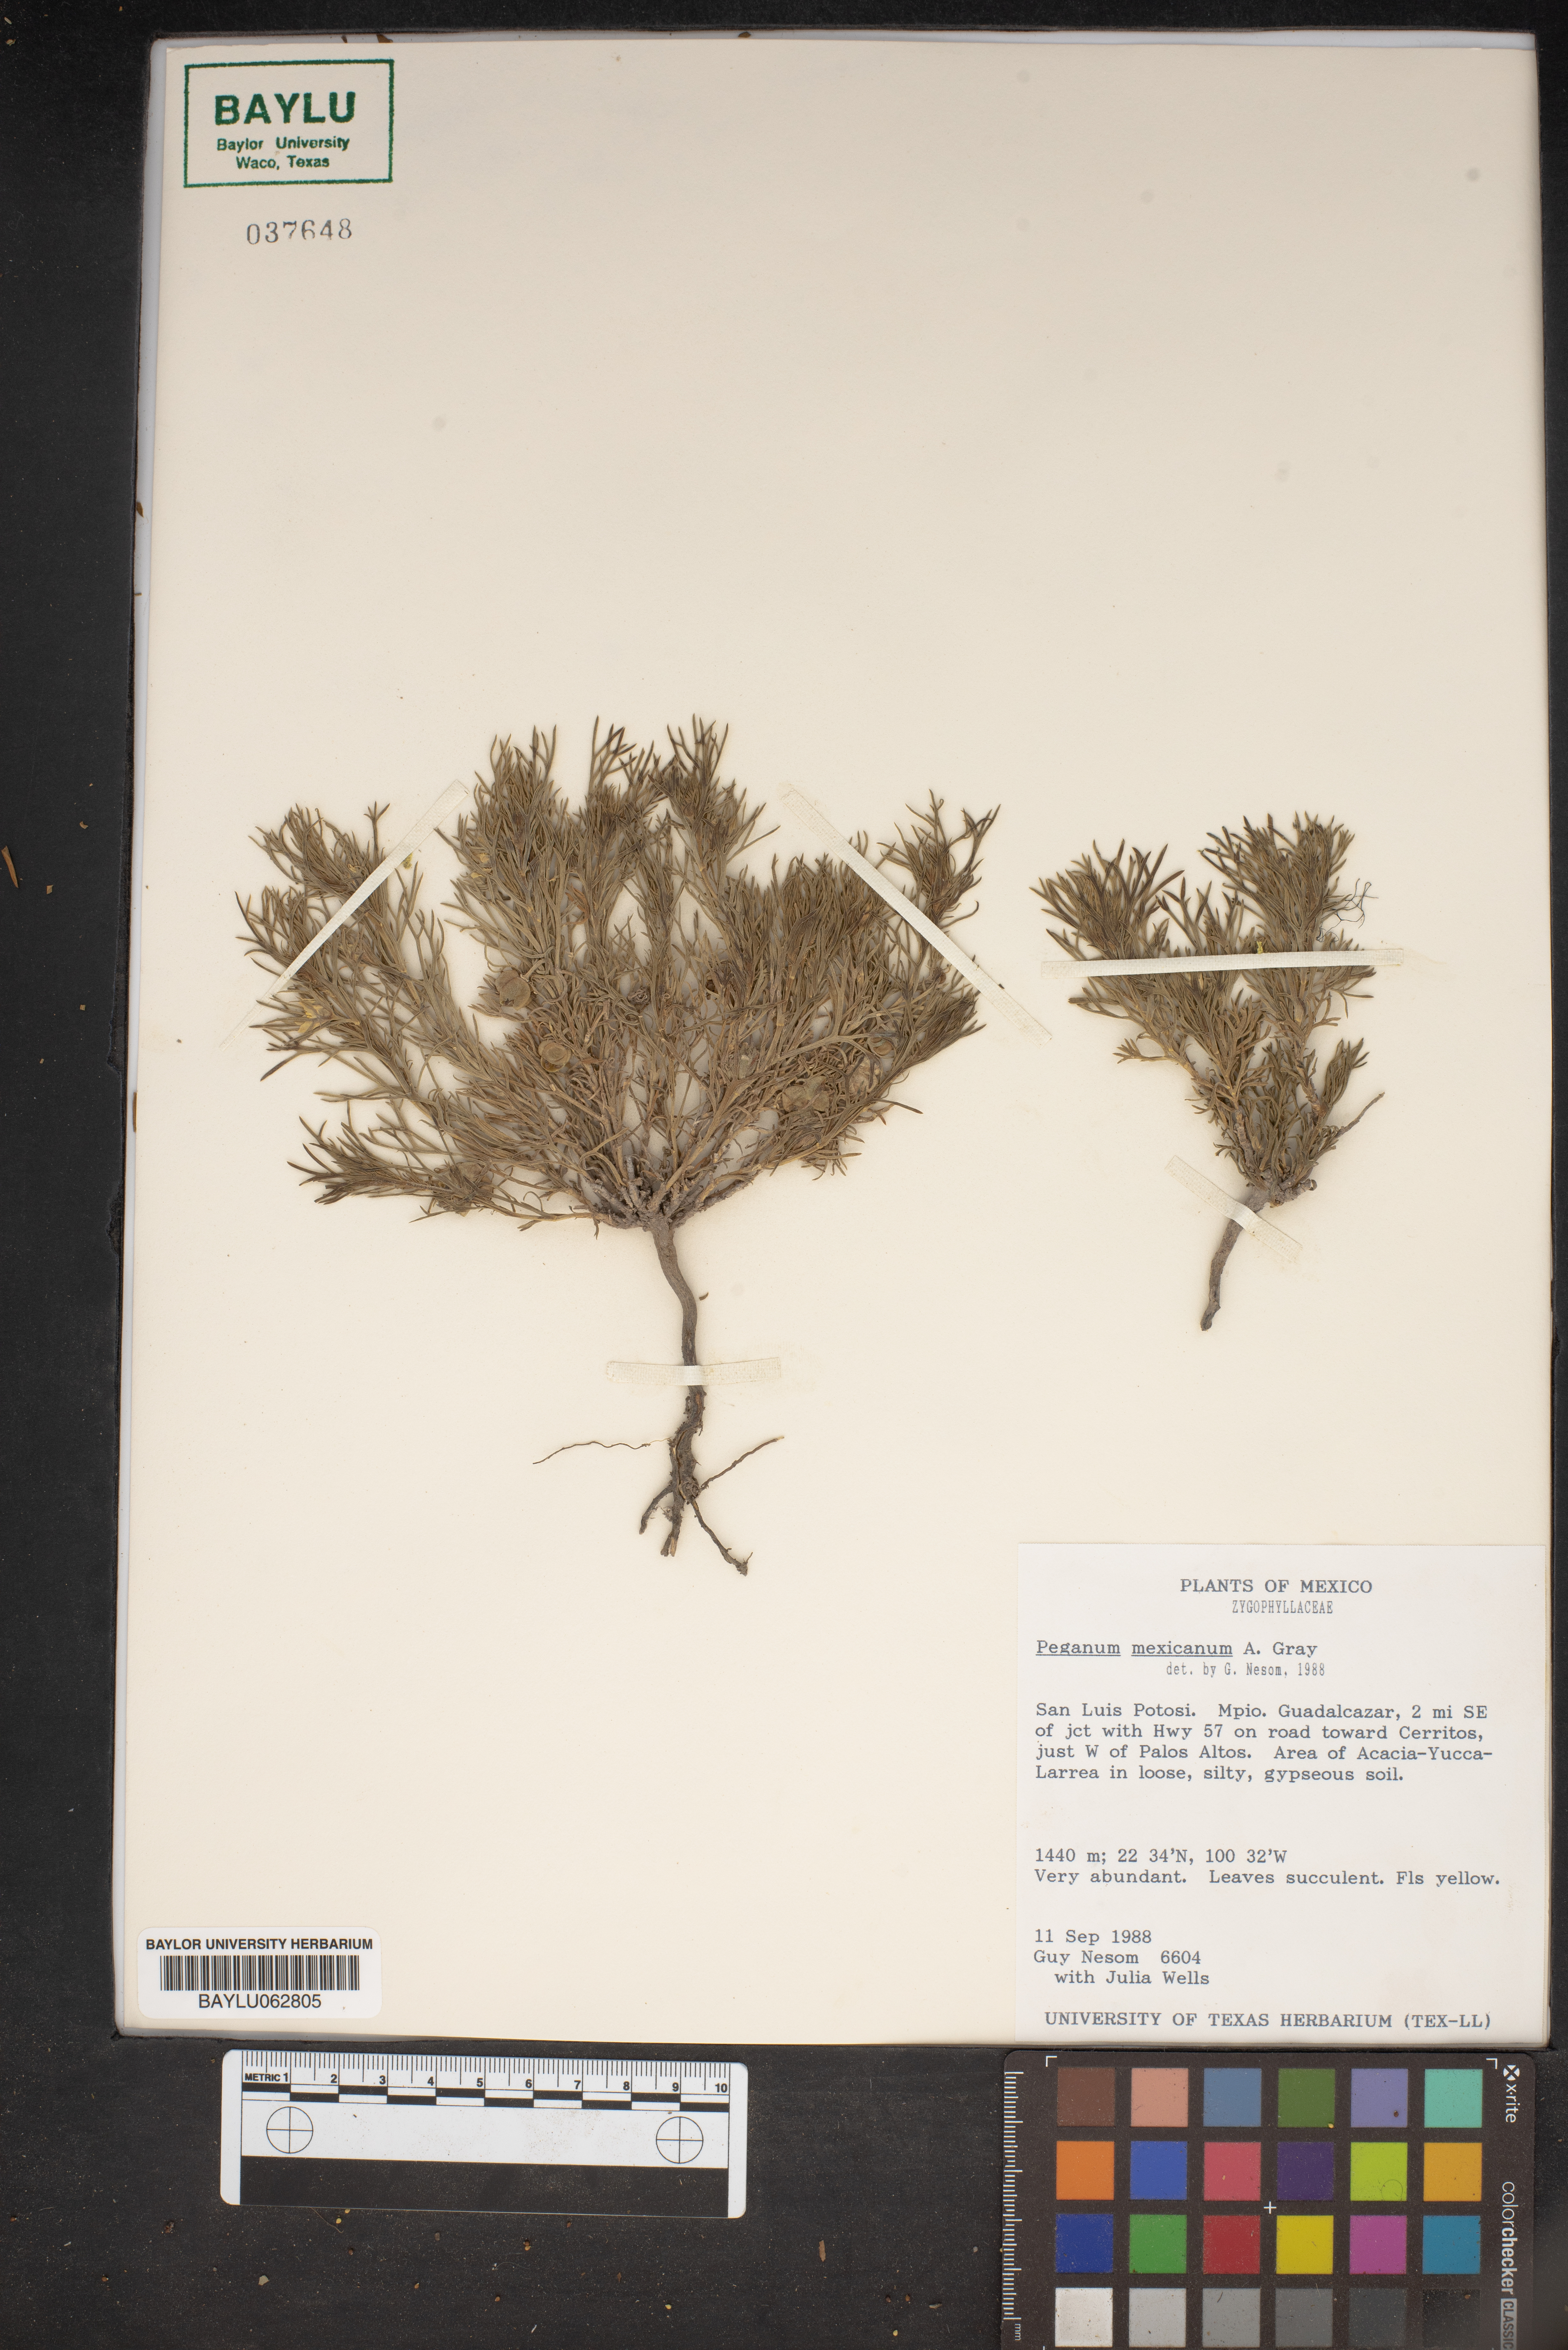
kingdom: Plantae
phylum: Tracheophyta
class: Magnoliopsida
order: Sapindales
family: Tetradiclidaceae
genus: Peganum
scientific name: Peganum mexicanum
